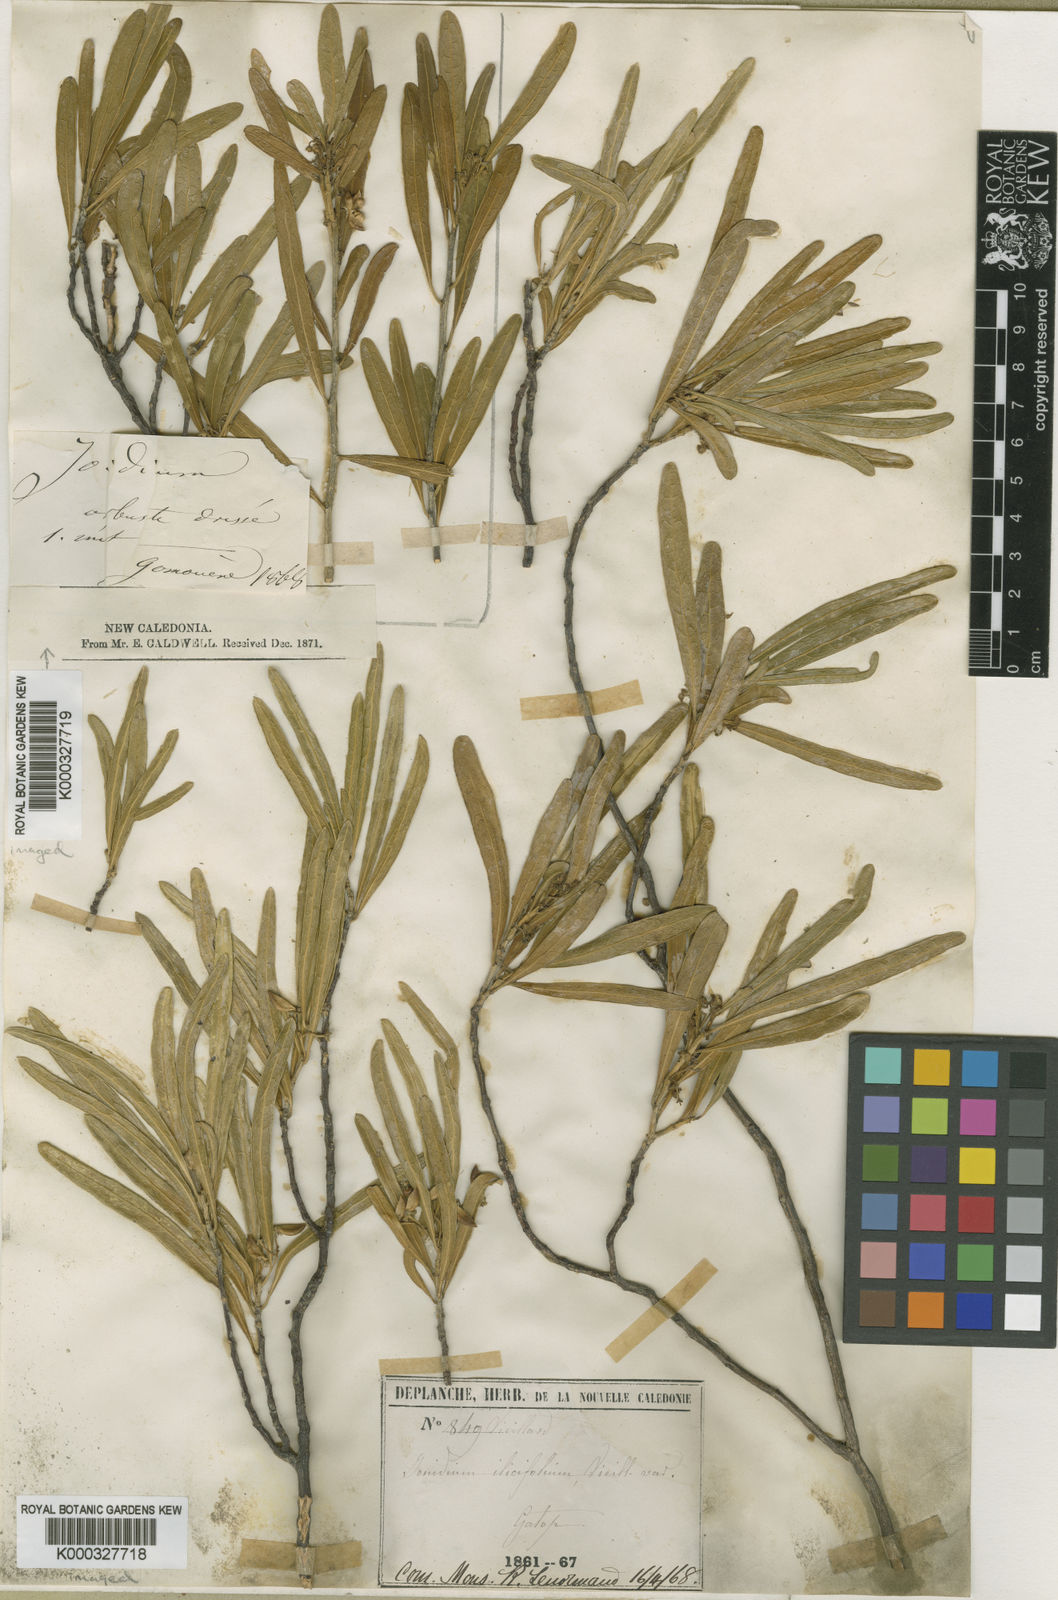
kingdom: Plantae
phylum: Tracheophyta
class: Magnoliopsida
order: Malpighiales
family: Violaceae
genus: Pigea
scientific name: Pigea caledonica
